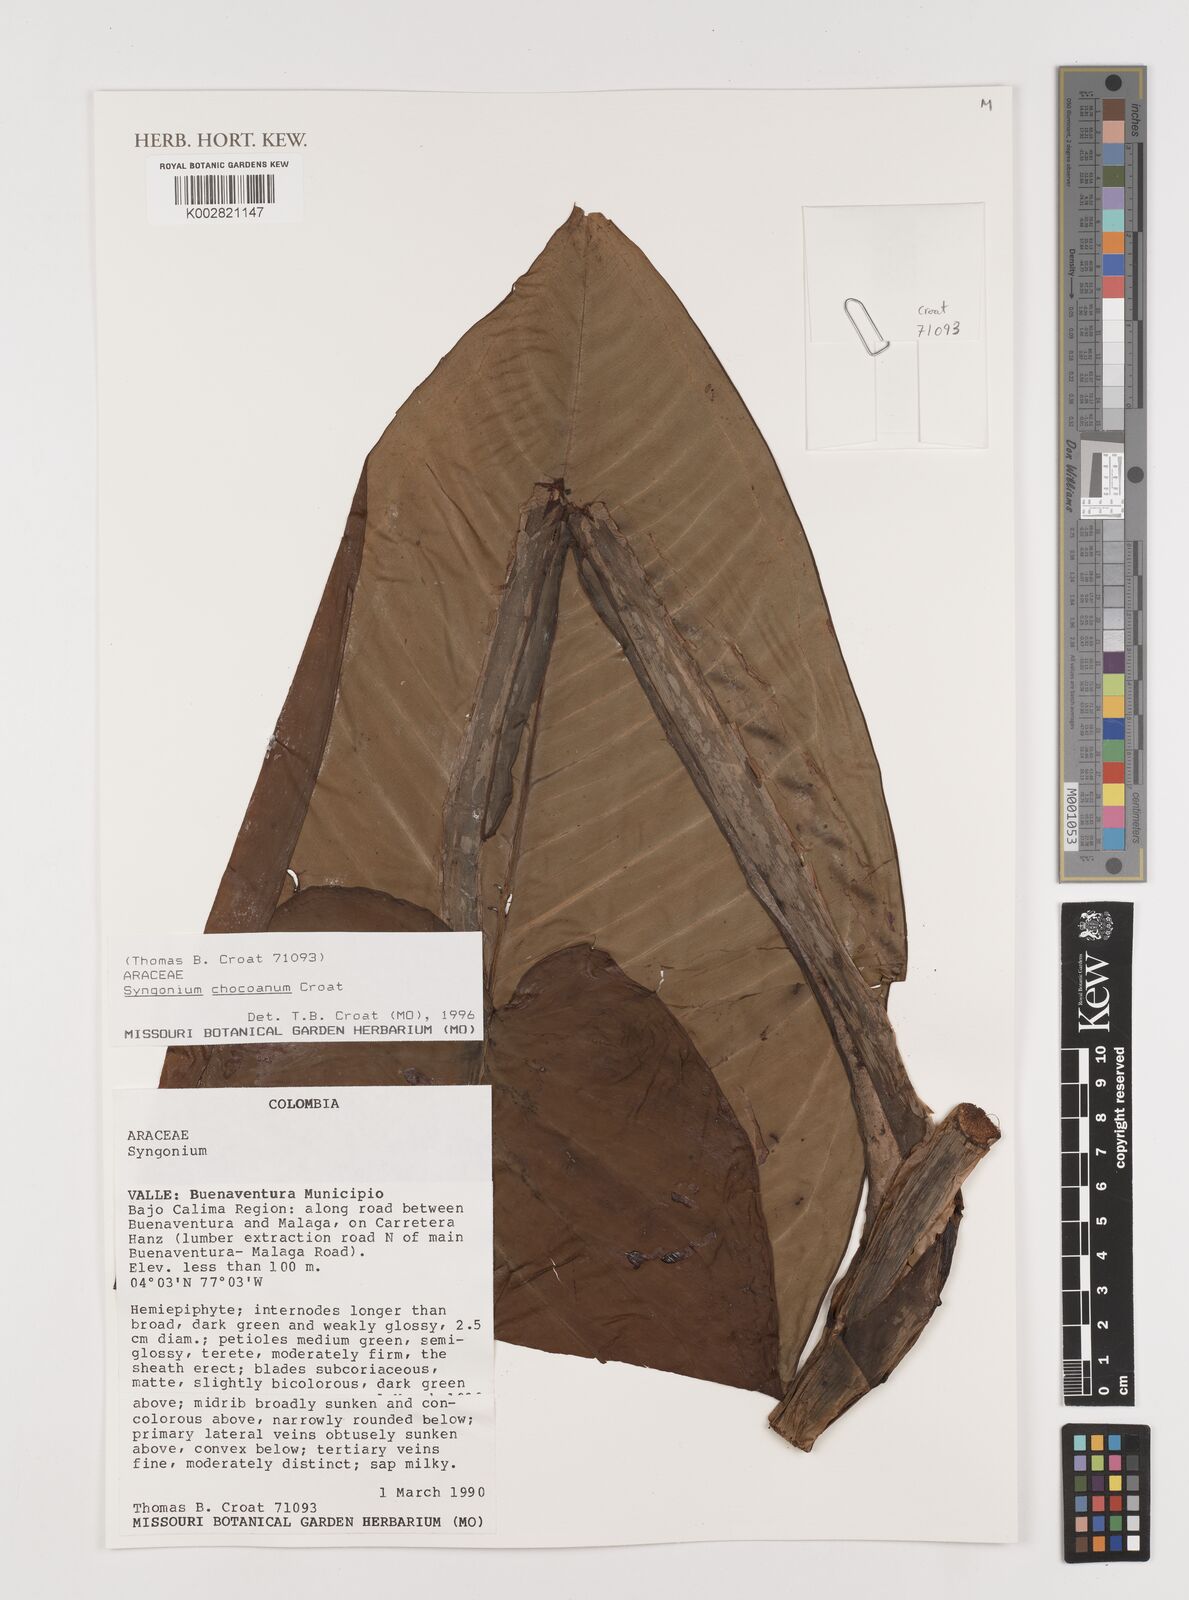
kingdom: Plantae
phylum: Tracheophyta
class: Liliopsida
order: Alismatales
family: Araceae
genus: Syngonium
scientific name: Syngonium chocoanum
